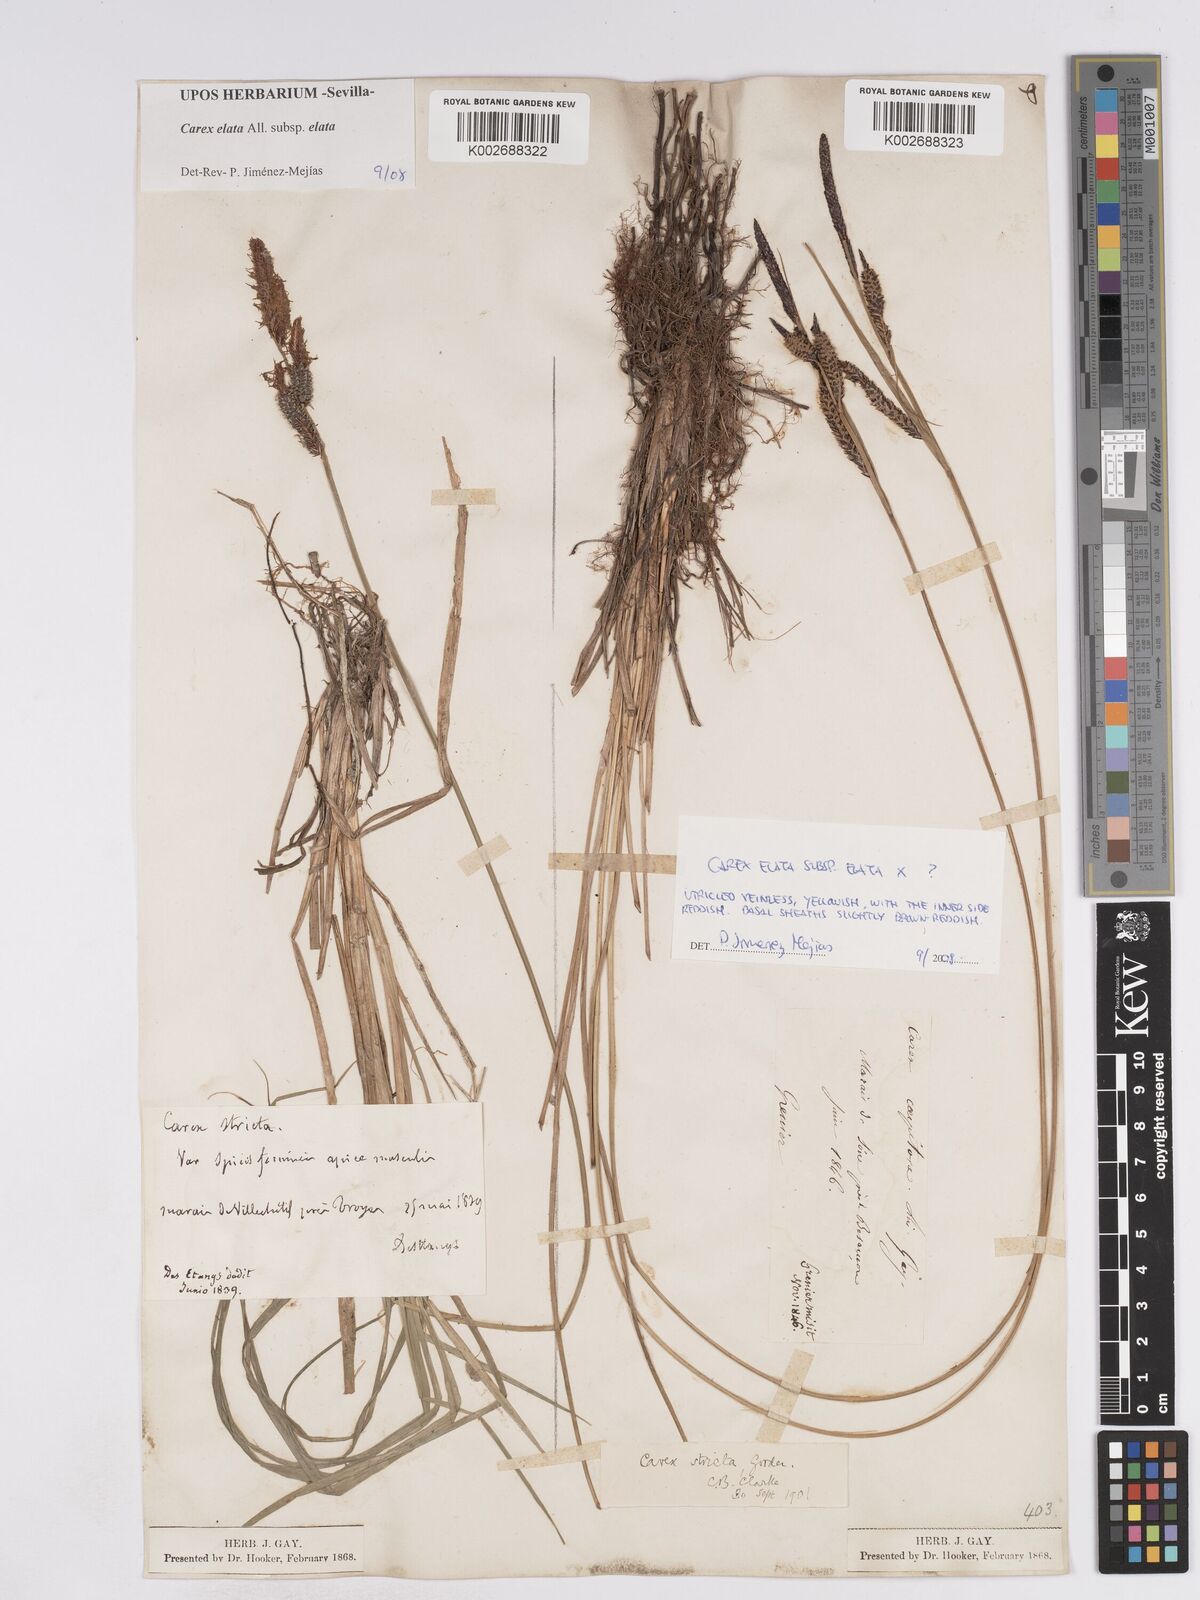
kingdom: Plantae
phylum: Tracheophyta
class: Liliopsida
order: Poales
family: Cyperaceae
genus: Carex
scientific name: Carex elata
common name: Tufted sedge
